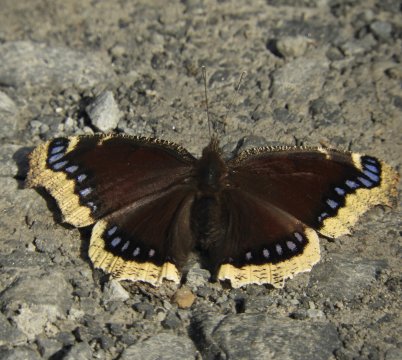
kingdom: Animalia
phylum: Arthropoda
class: Insecta
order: Lepidoptera
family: Nymphalidae
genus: Nymphalis
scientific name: Nymphalis antiopa
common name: Mourning Cloak
